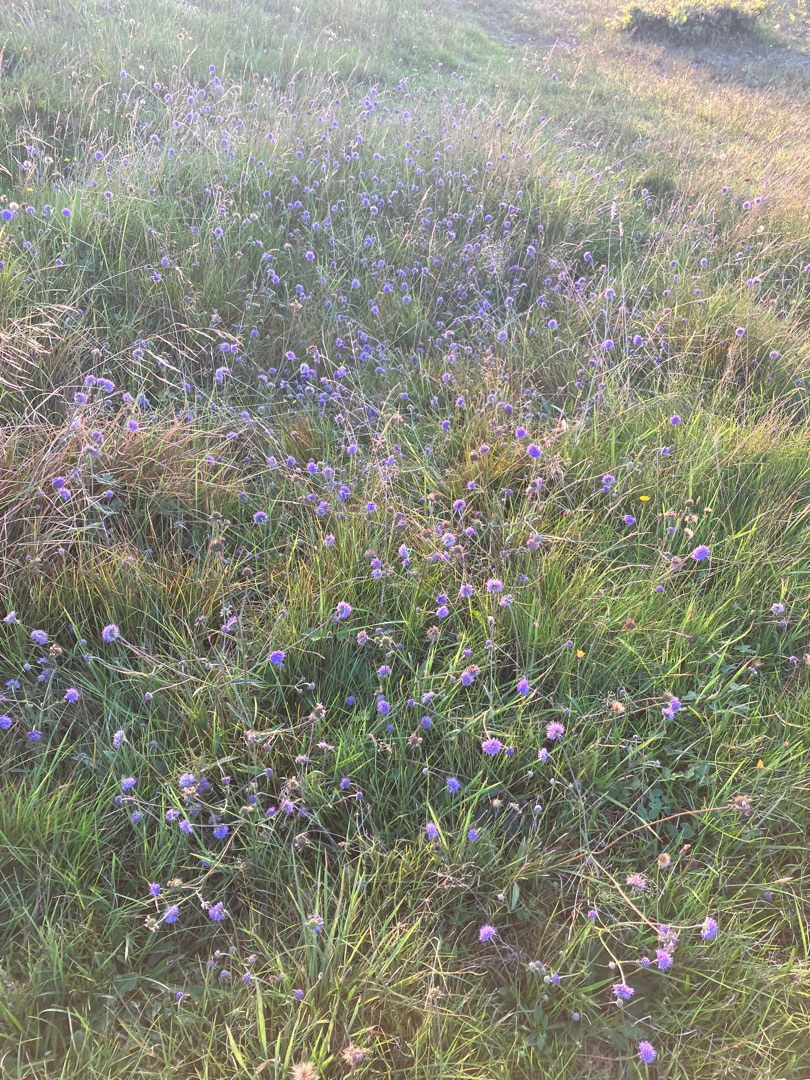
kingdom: Plantae
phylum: Tracheophyta
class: Magnoliopsida
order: Dipsacales
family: Caprifoliaceae
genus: Succisa
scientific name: Succisa pratensis
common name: Djævelsbid
